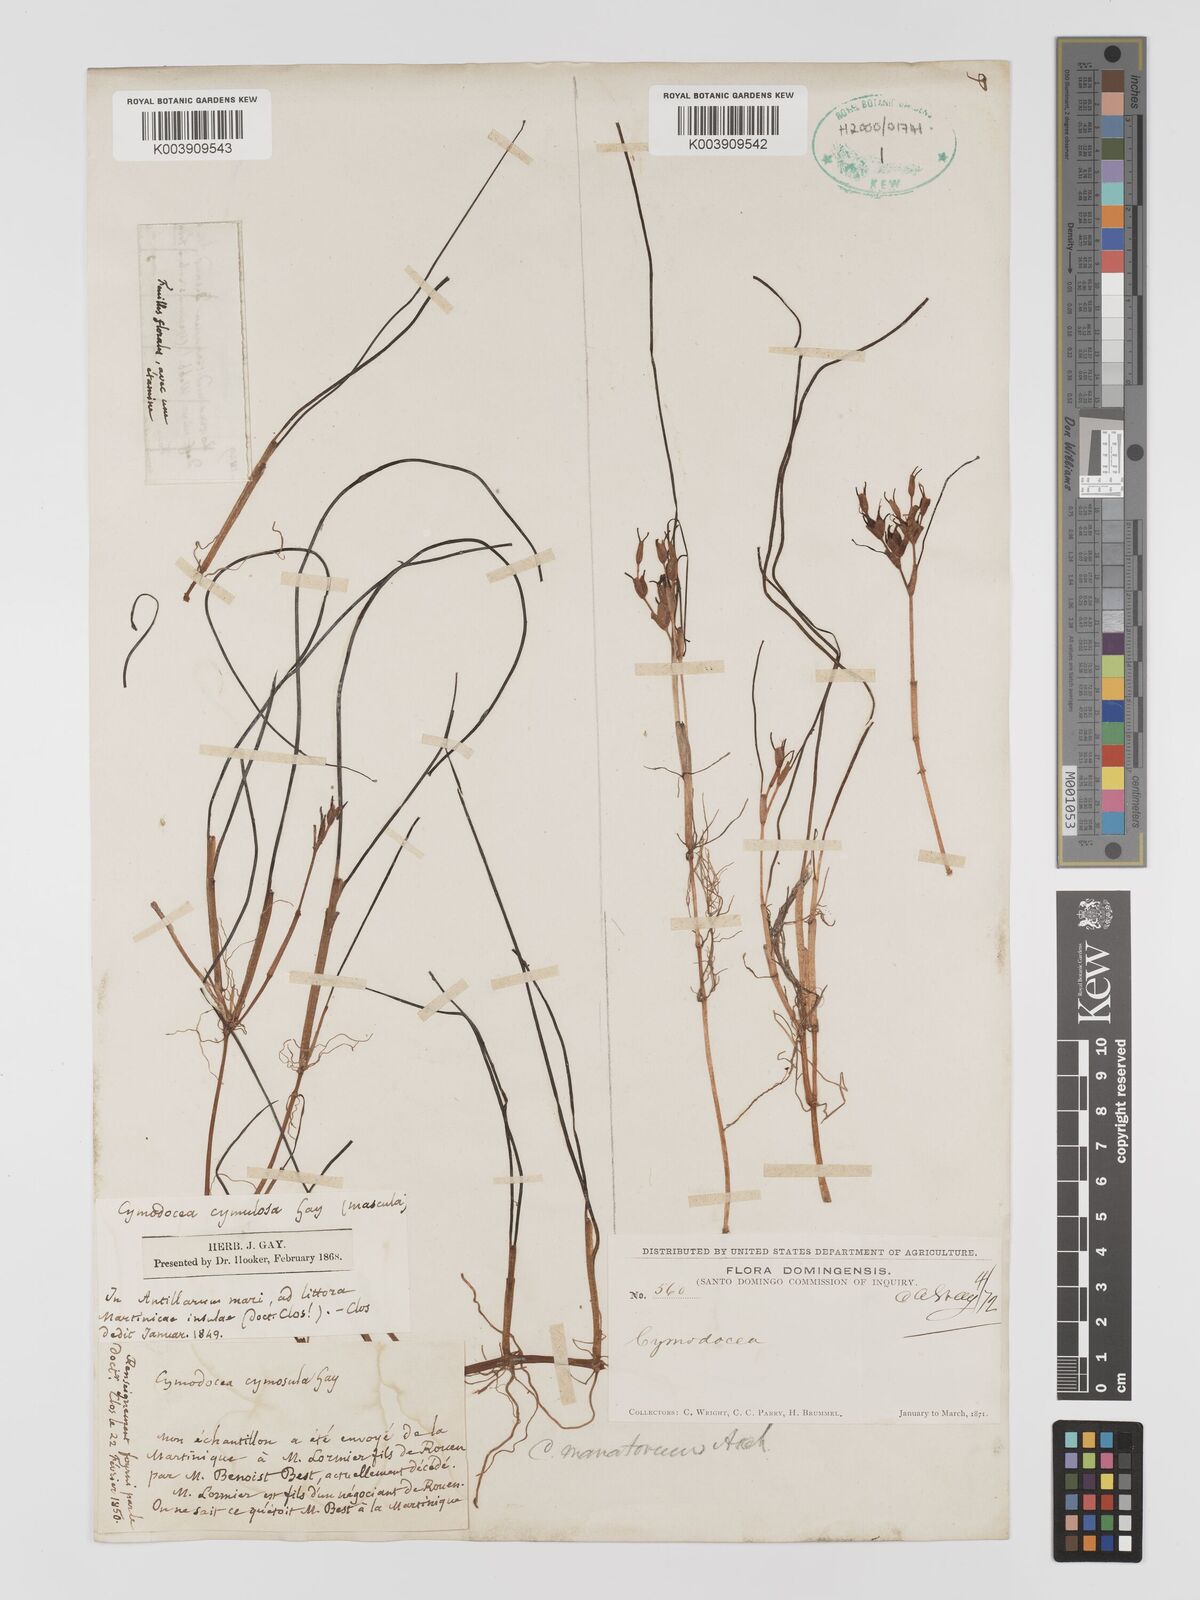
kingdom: Plantae
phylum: Tracheophyta
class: Liliopsida
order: Alismatales
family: Cymodoceaceae
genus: Syringodium
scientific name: Syringodium
